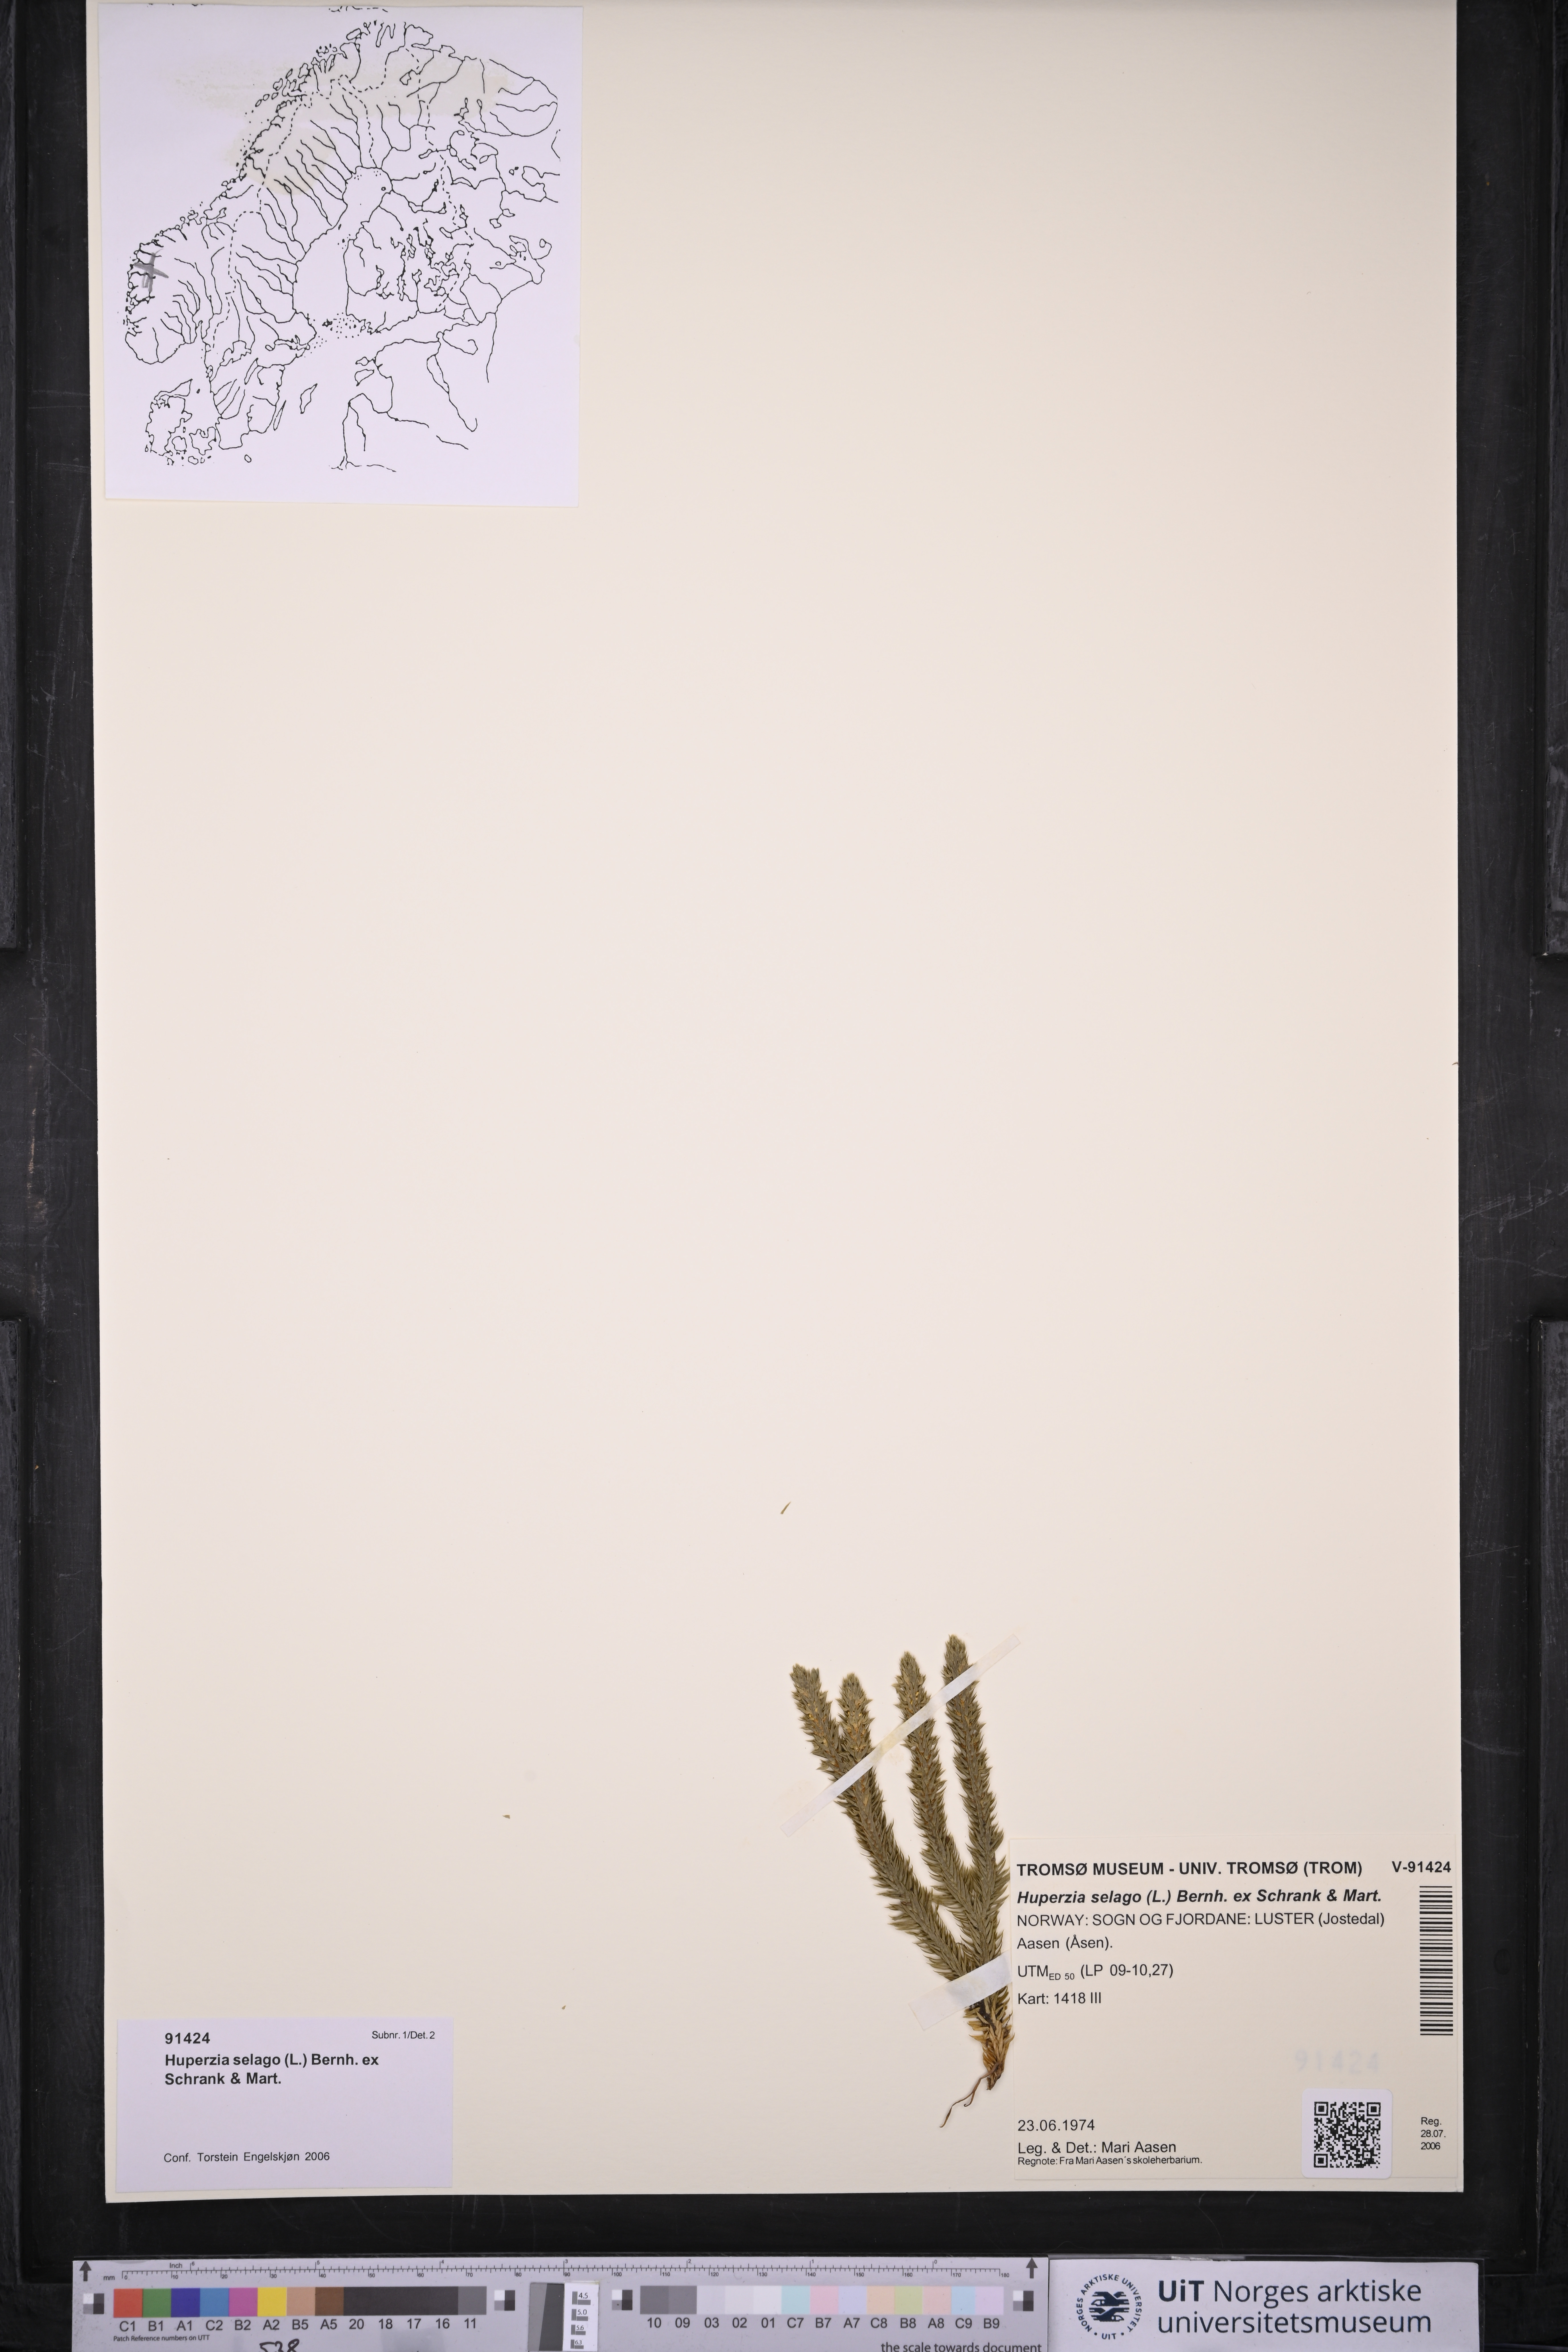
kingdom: Plantae
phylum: Tracheophyta
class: Lycopodiopsida
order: Lycopodiales
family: Lycopodiaceae
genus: Huperzia
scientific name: Huperzia selago
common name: Northern firmoss
